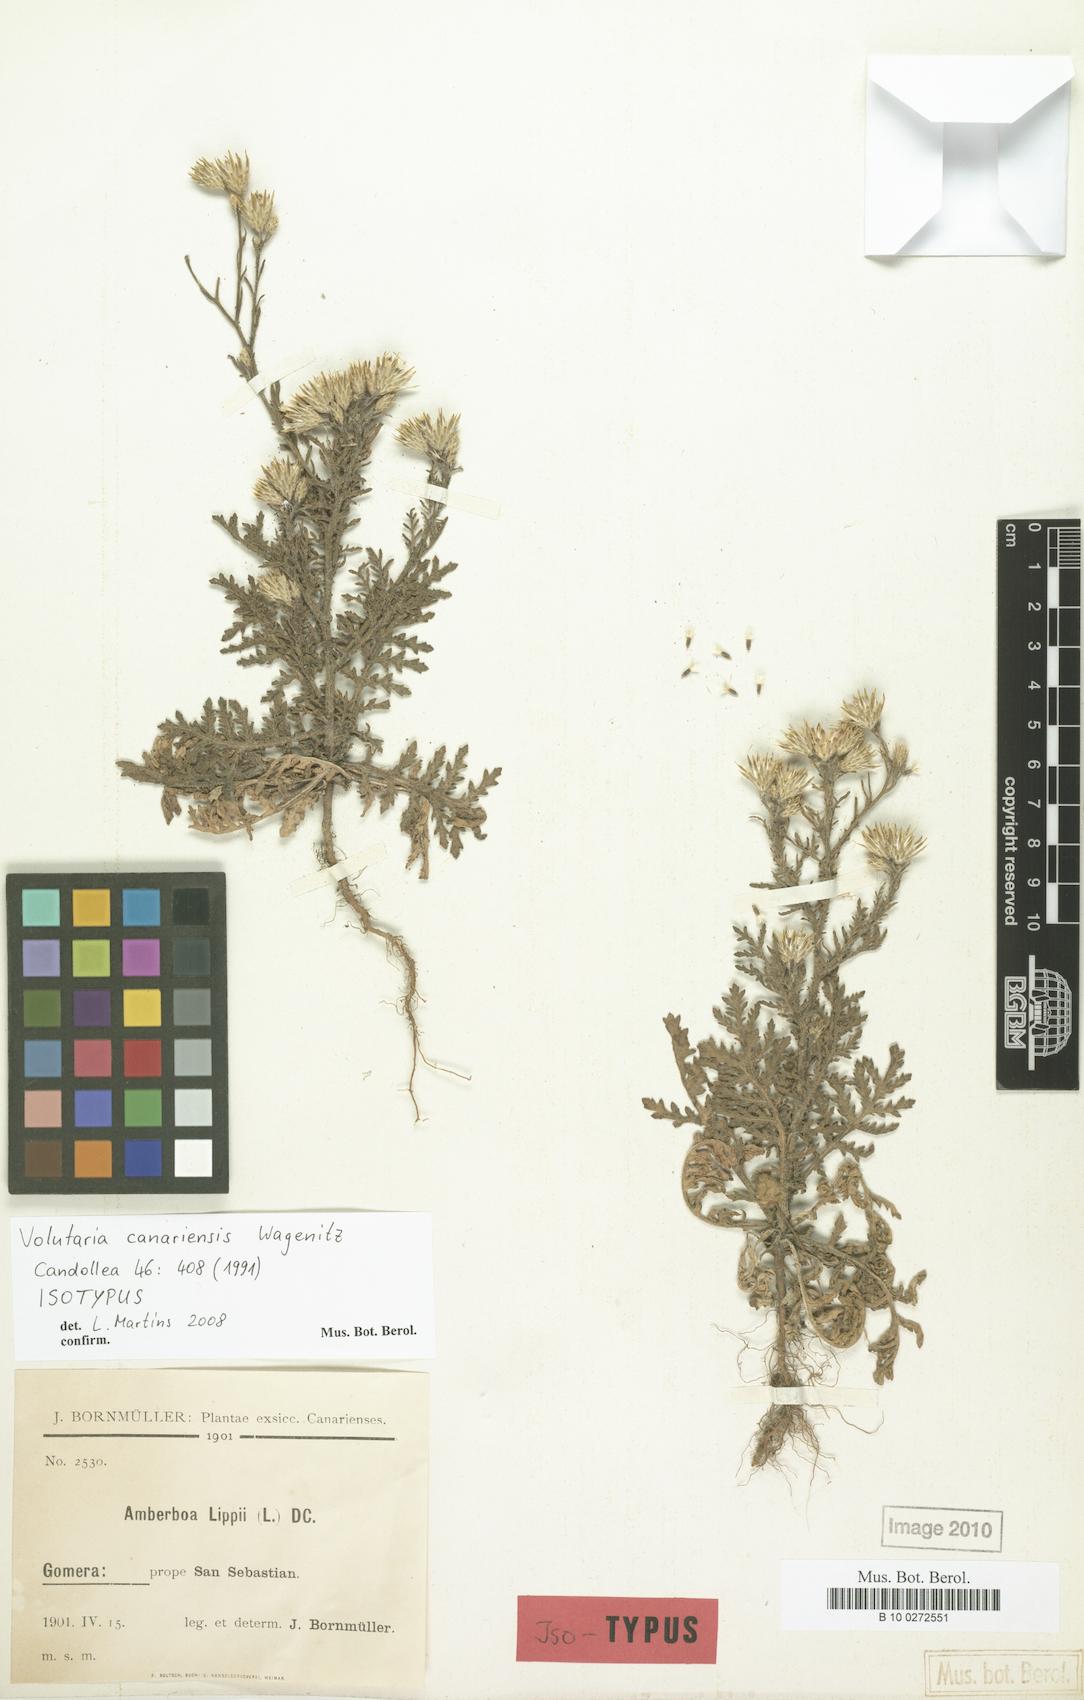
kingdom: Plantae
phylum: Tracheophyta
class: Magnoliopsida
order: Asterales
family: Asteraceae
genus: Volutaria
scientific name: Volutaria canariensis
